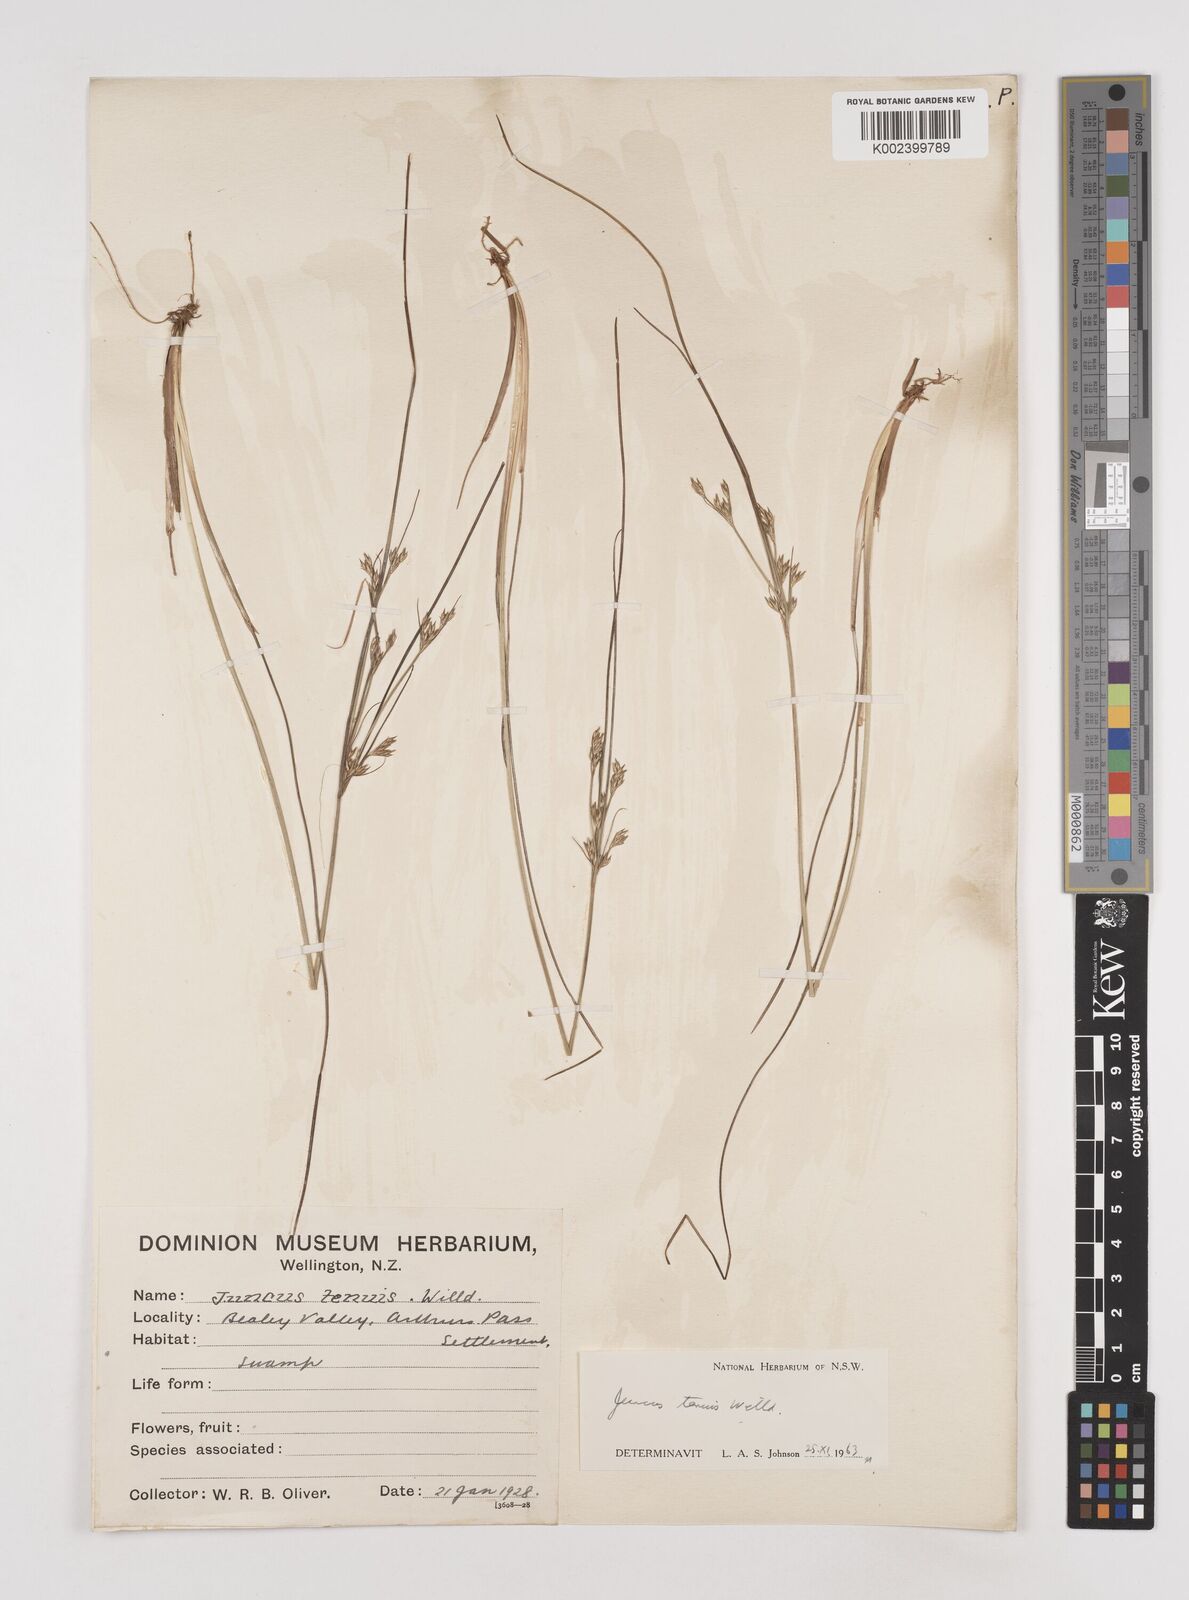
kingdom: Plantae
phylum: Tracheophyta
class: Liliopsida
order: Poales
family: Juncaceae
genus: Juncus
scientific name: Juncus tenuis
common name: Slender rush
